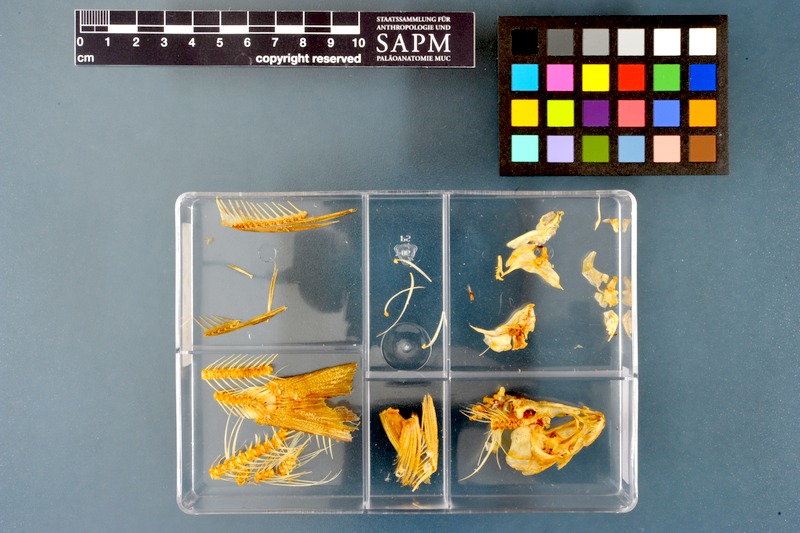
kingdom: Animalia
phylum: Chordata
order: Salmoniformes
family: Salmonidae
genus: Thymallus
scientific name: Thymallus thymallus
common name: Grayling
